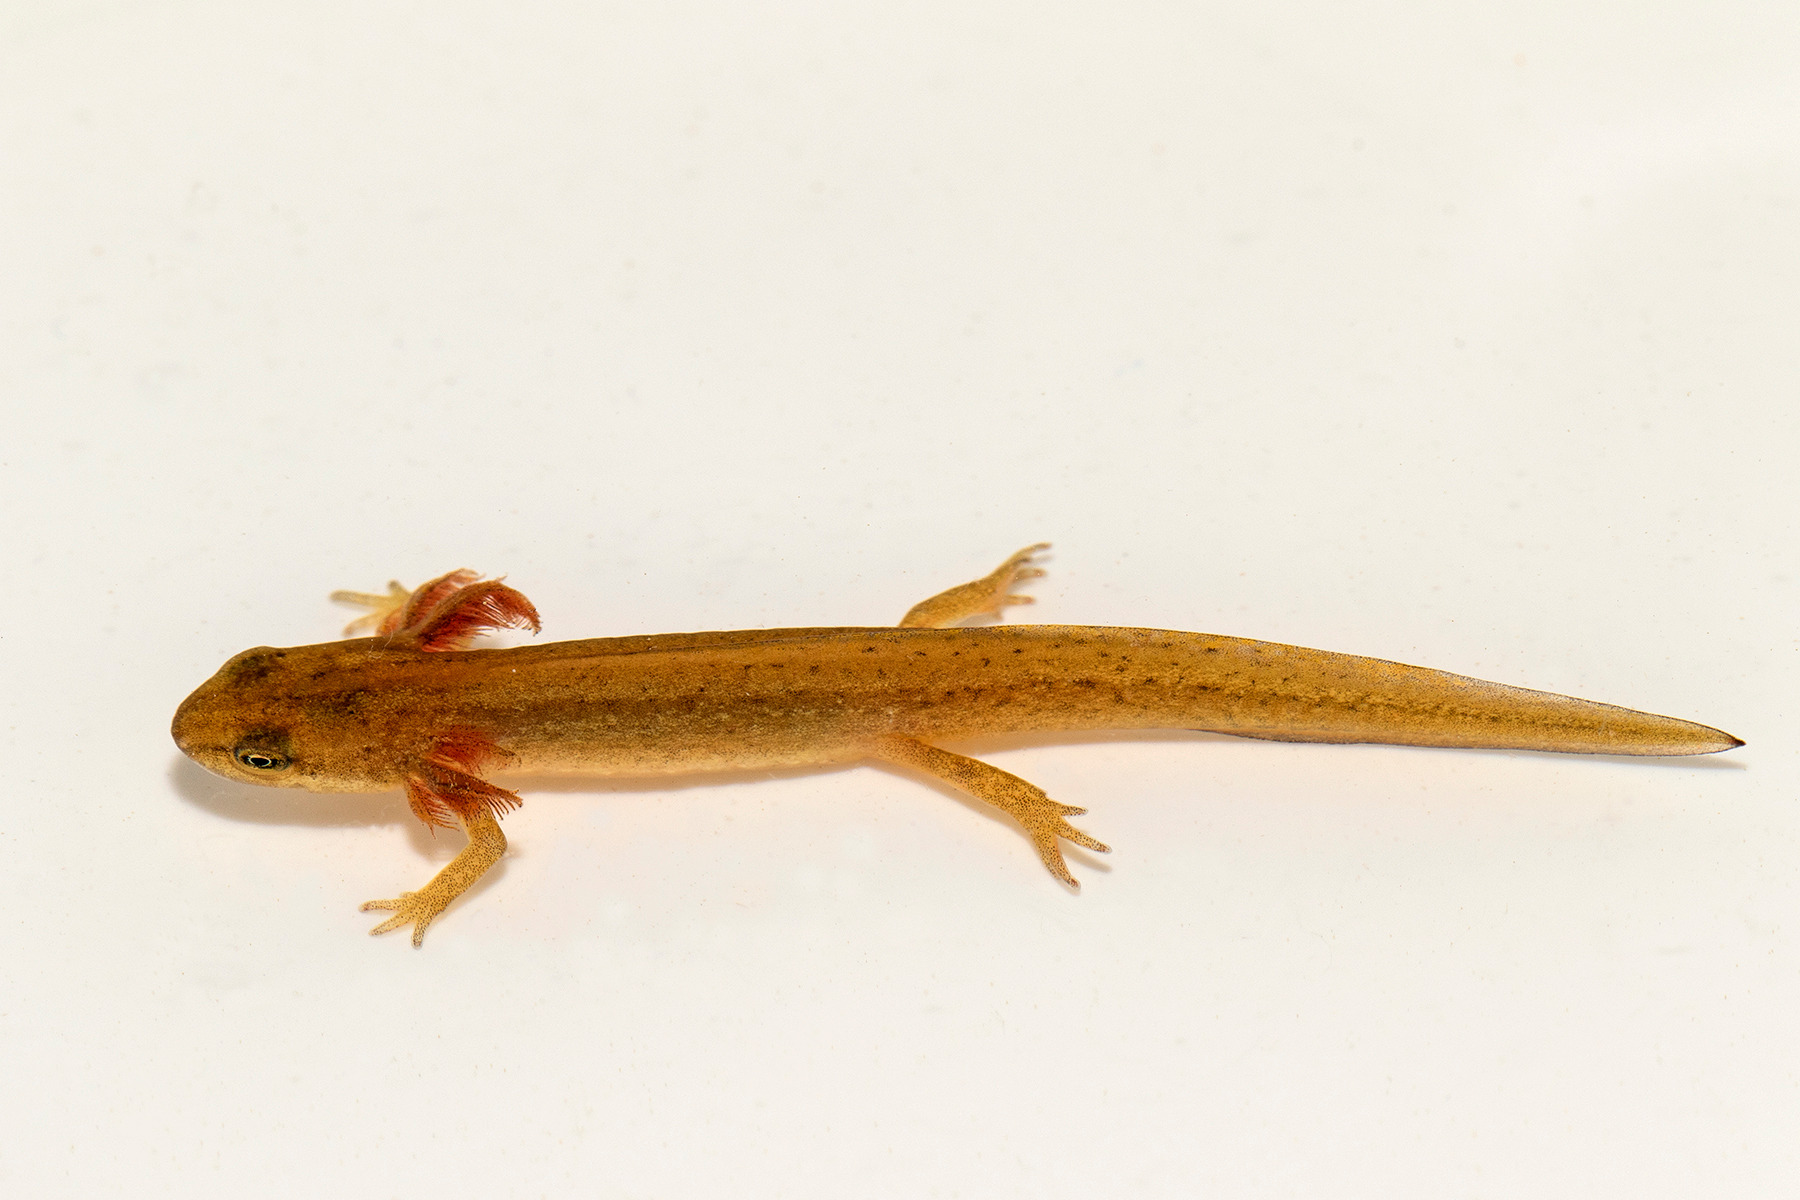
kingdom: Animalia
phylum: Chordata
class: Amphibia
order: Caudata
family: Salamandridae
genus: Lissotriton
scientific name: Lissotriton vulgaris
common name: Lille vandsalamander
